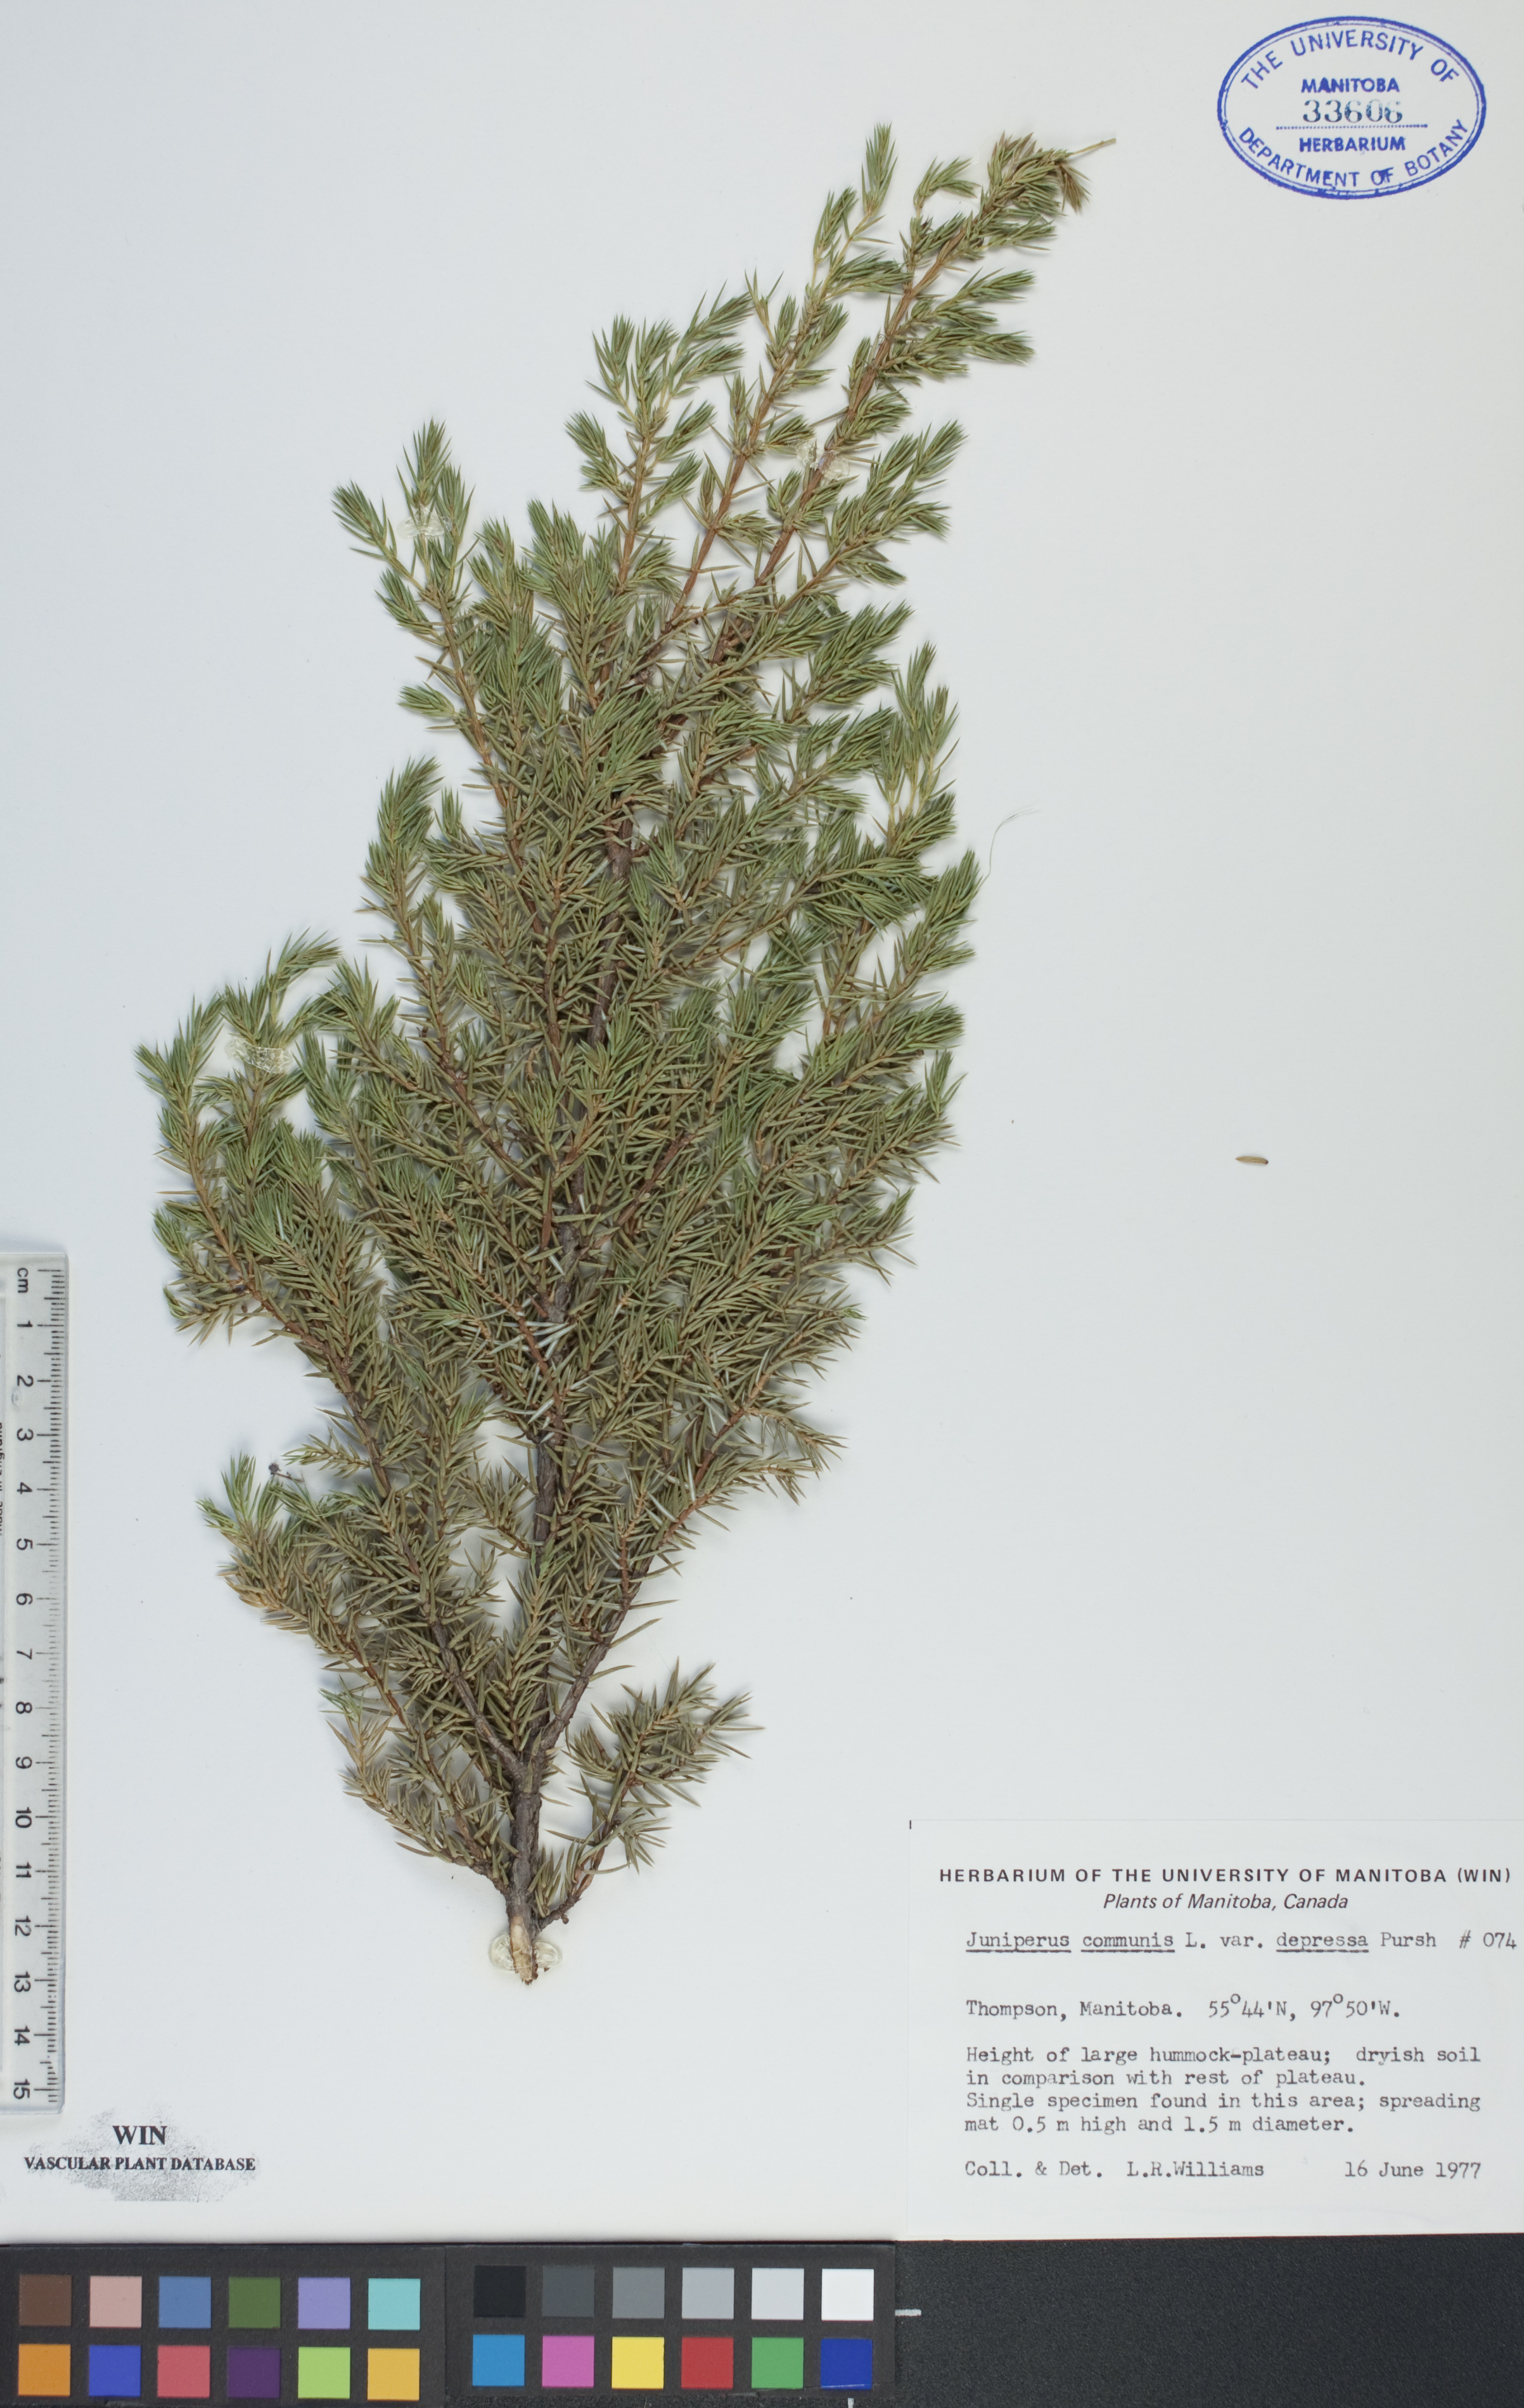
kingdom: Plantae
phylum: Tracheophyta
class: Pinopsida
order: Pinales
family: Cupressaceae
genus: Juniperus
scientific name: Juniperus communis
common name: Common juniper
